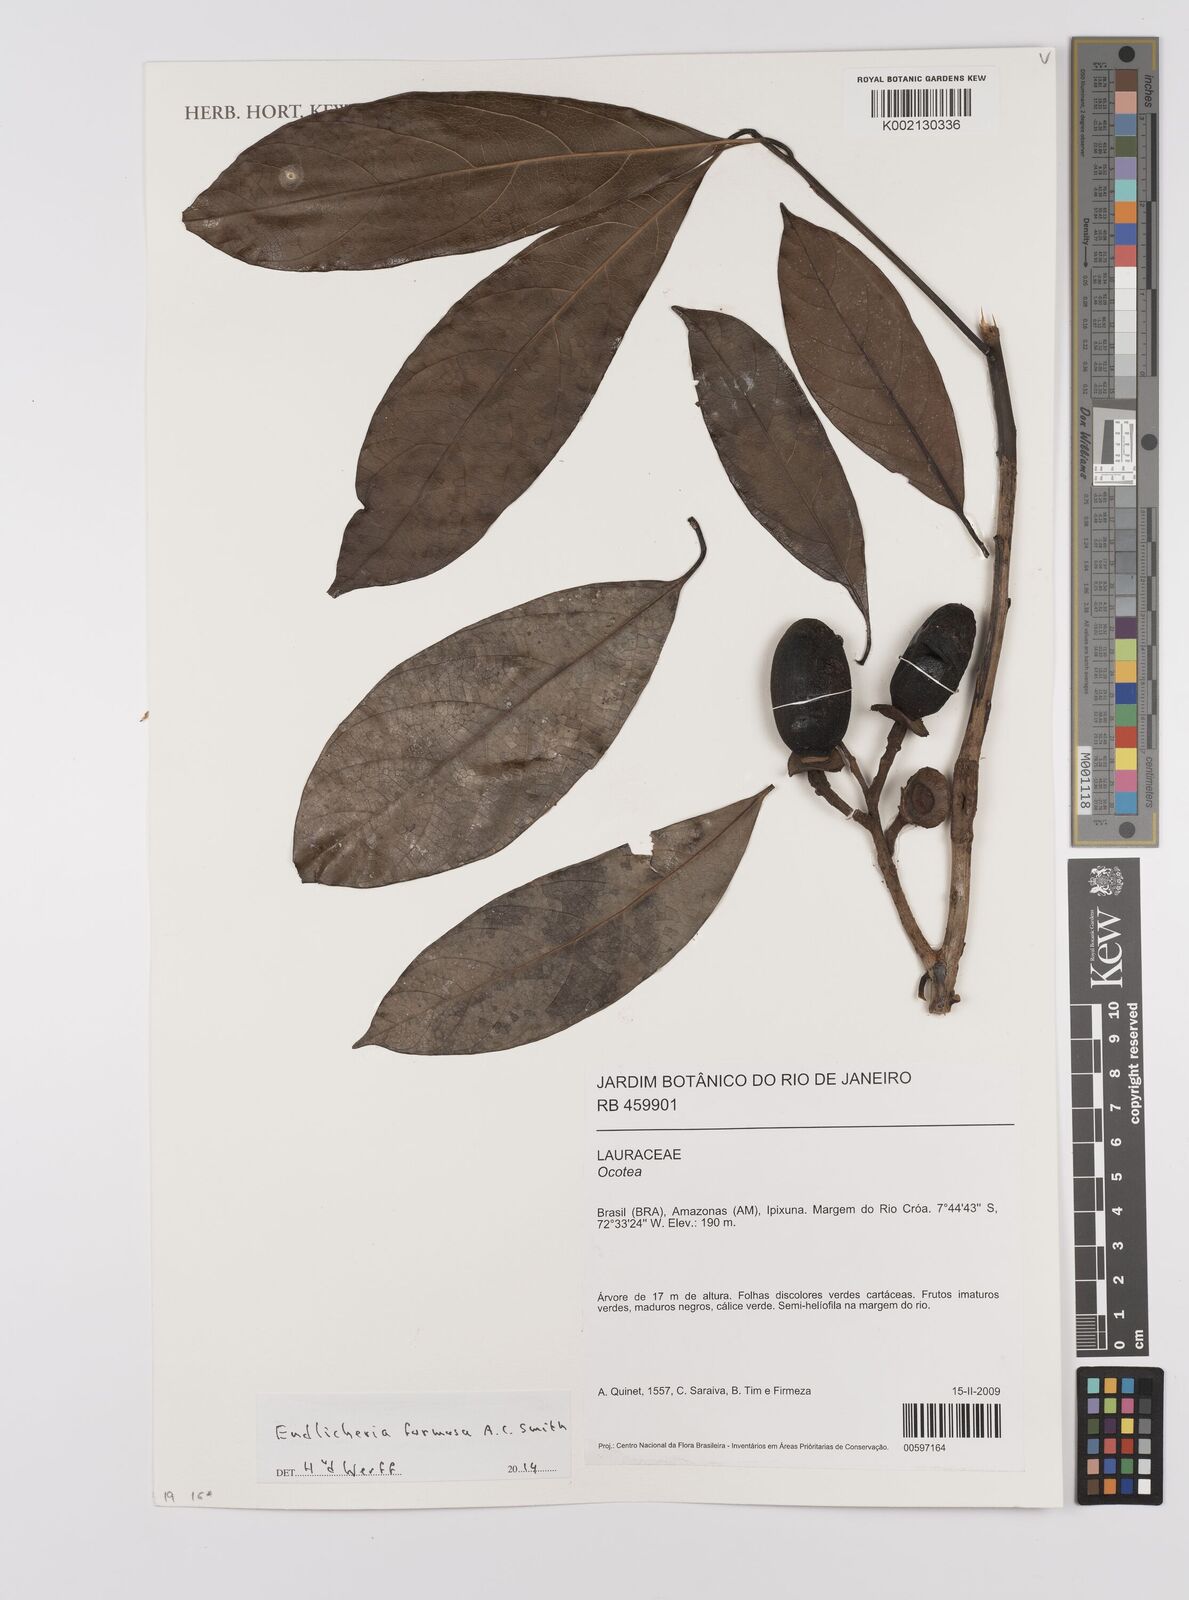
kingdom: Plantae
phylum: Tracheophyta
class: Magnoliopsida
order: Laurales
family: Lauraceae
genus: Endlicheria
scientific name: Endlicheria formosa
